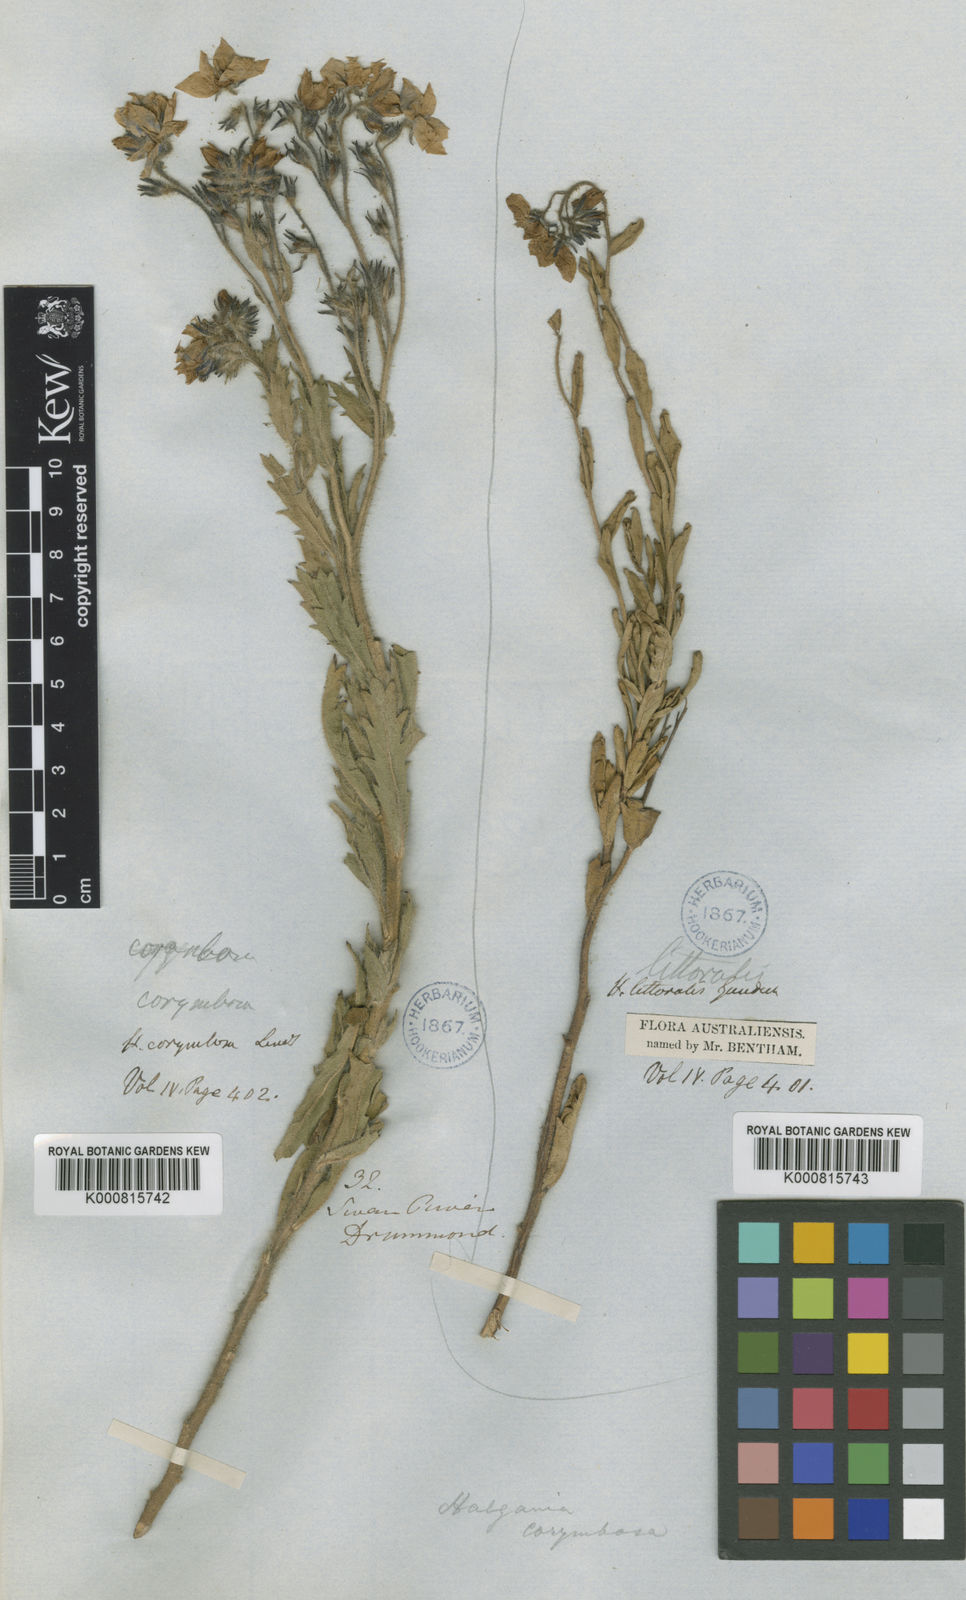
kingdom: Plantae
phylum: Tracheophyta
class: Magnoliopsida
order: Boraginales
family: Ehretiaceae
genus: Halgania
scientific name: Halgania corymbosa
